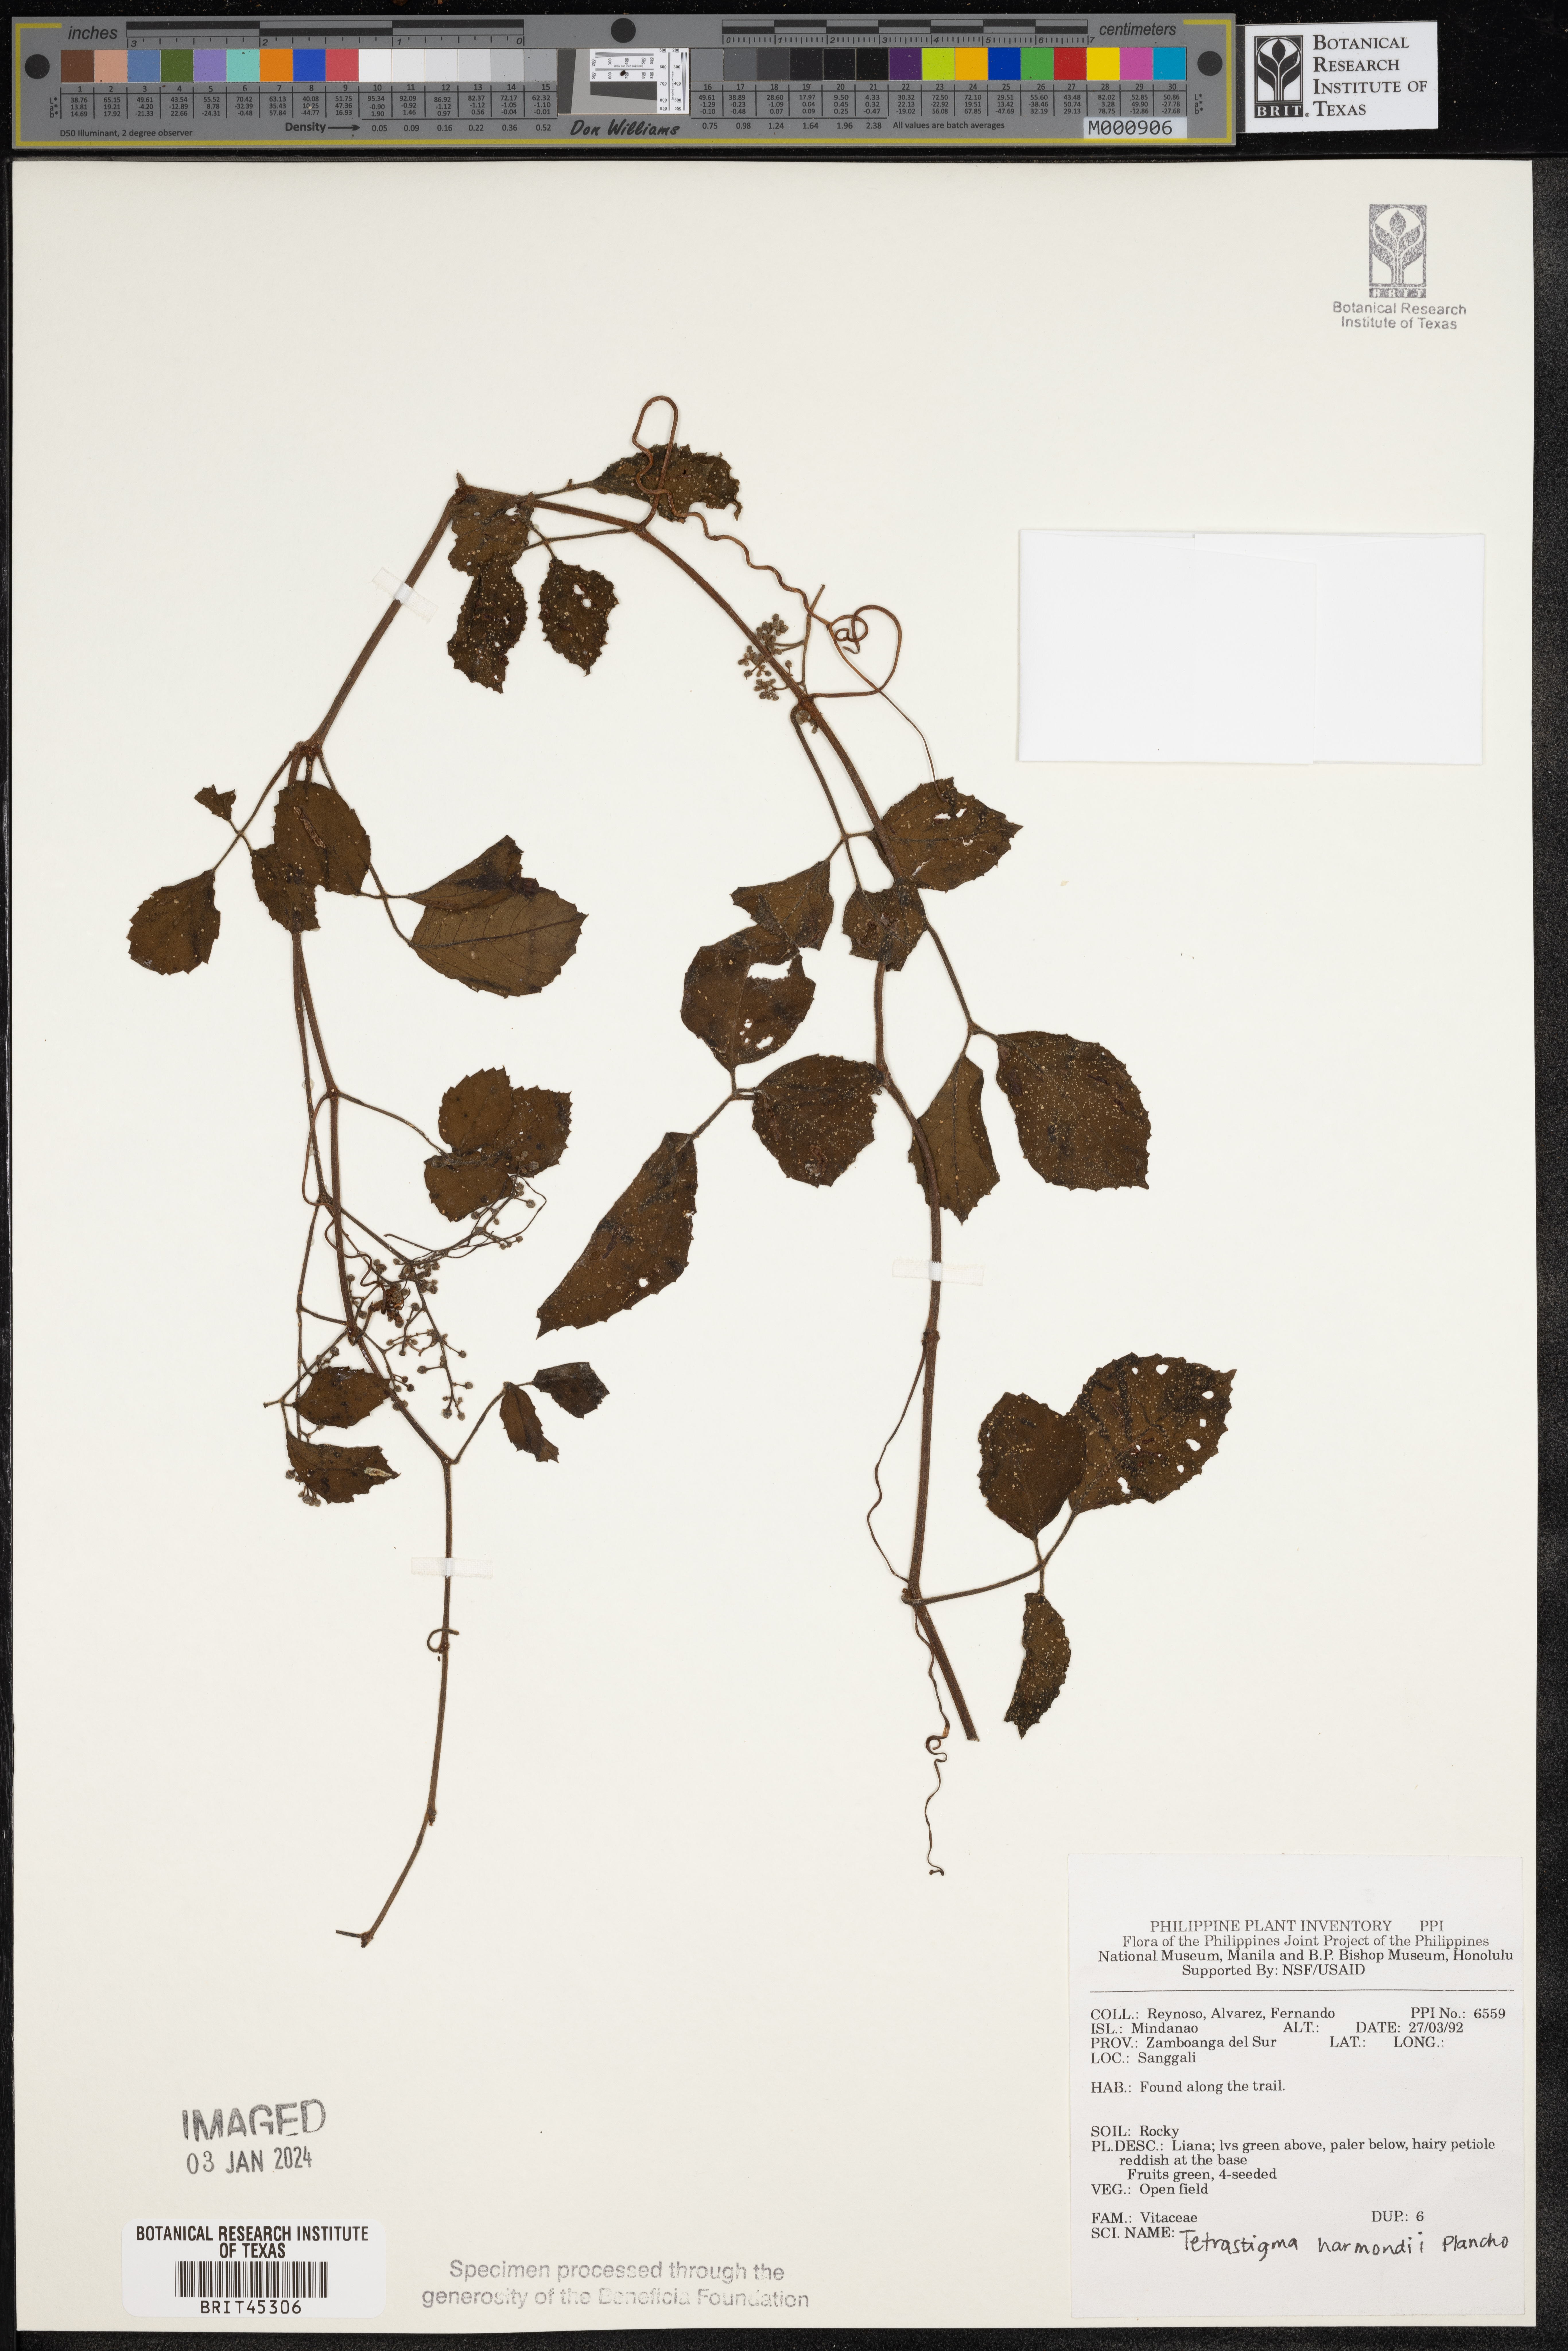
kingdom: Plantae
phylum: Tracheophyta
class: Magnoliopsida
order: Vitales
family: Vitaceae
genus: Tetrastigma
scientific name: Tetrastigma harmandii
